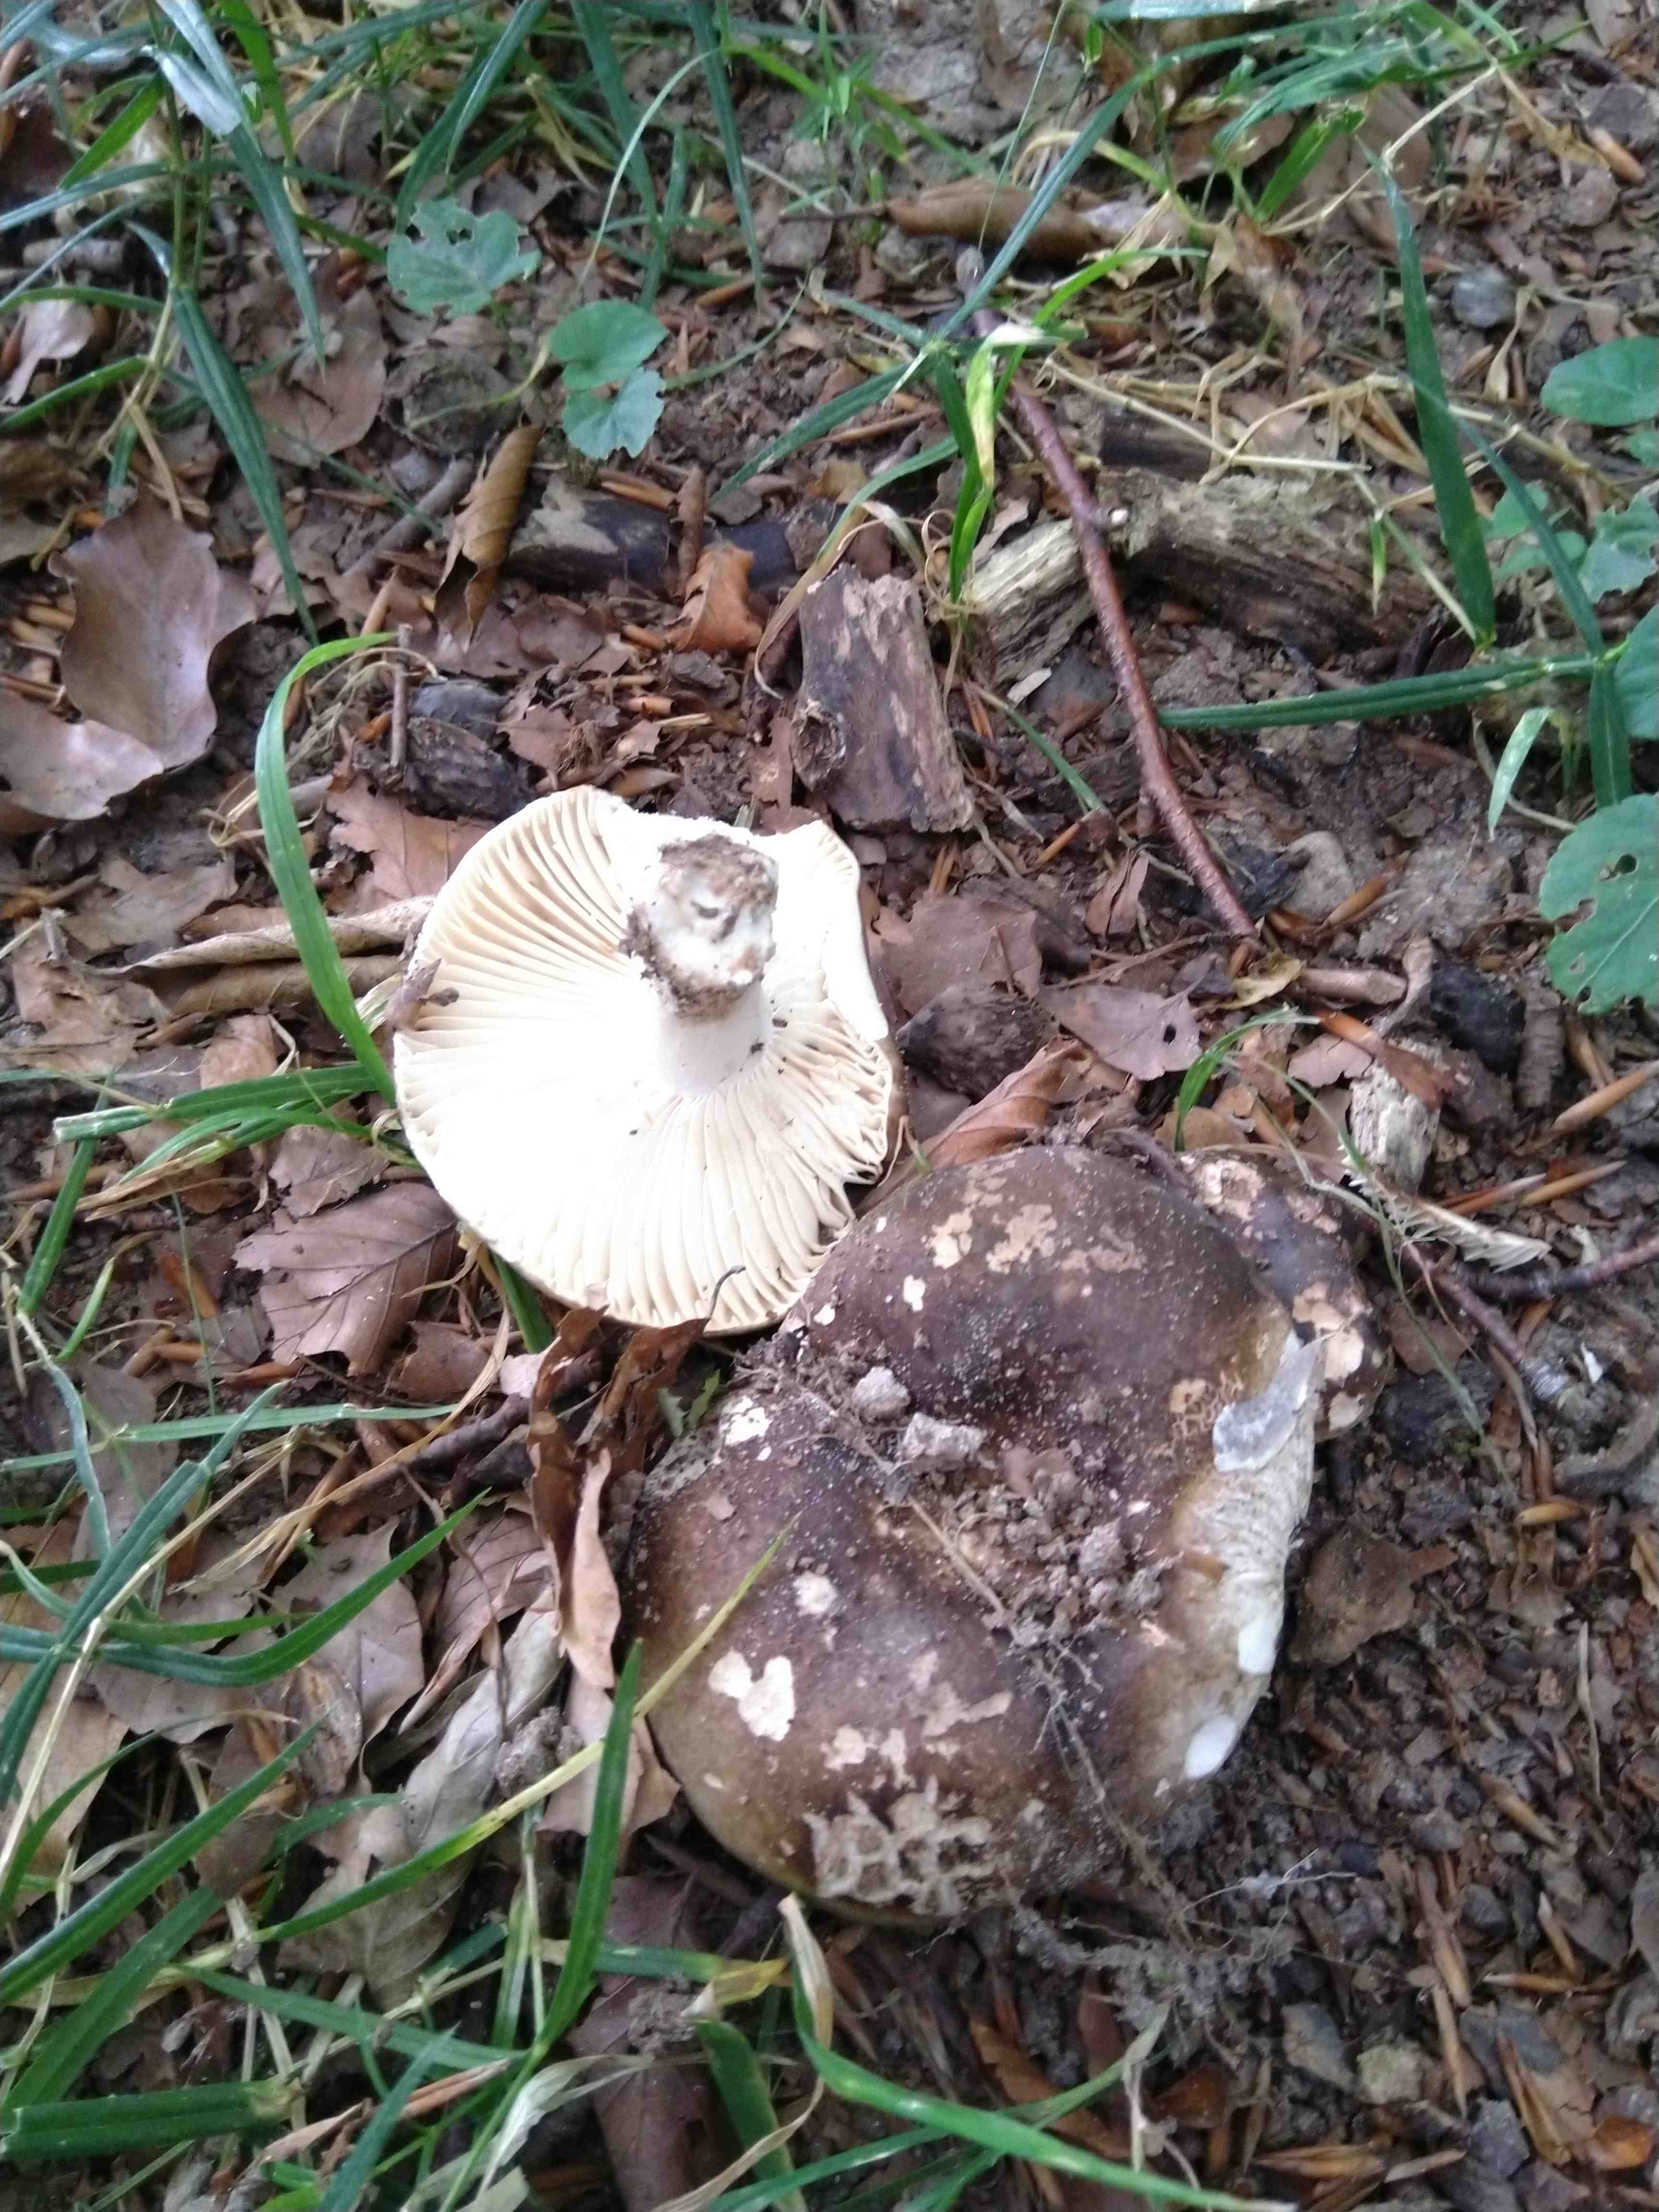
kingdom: Fungi
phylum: Basidiomycota
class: Agaricomycetes
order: Russulales
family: Russulaceae
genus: Russula
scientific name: Russula adusta
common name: sværtende skørhat
